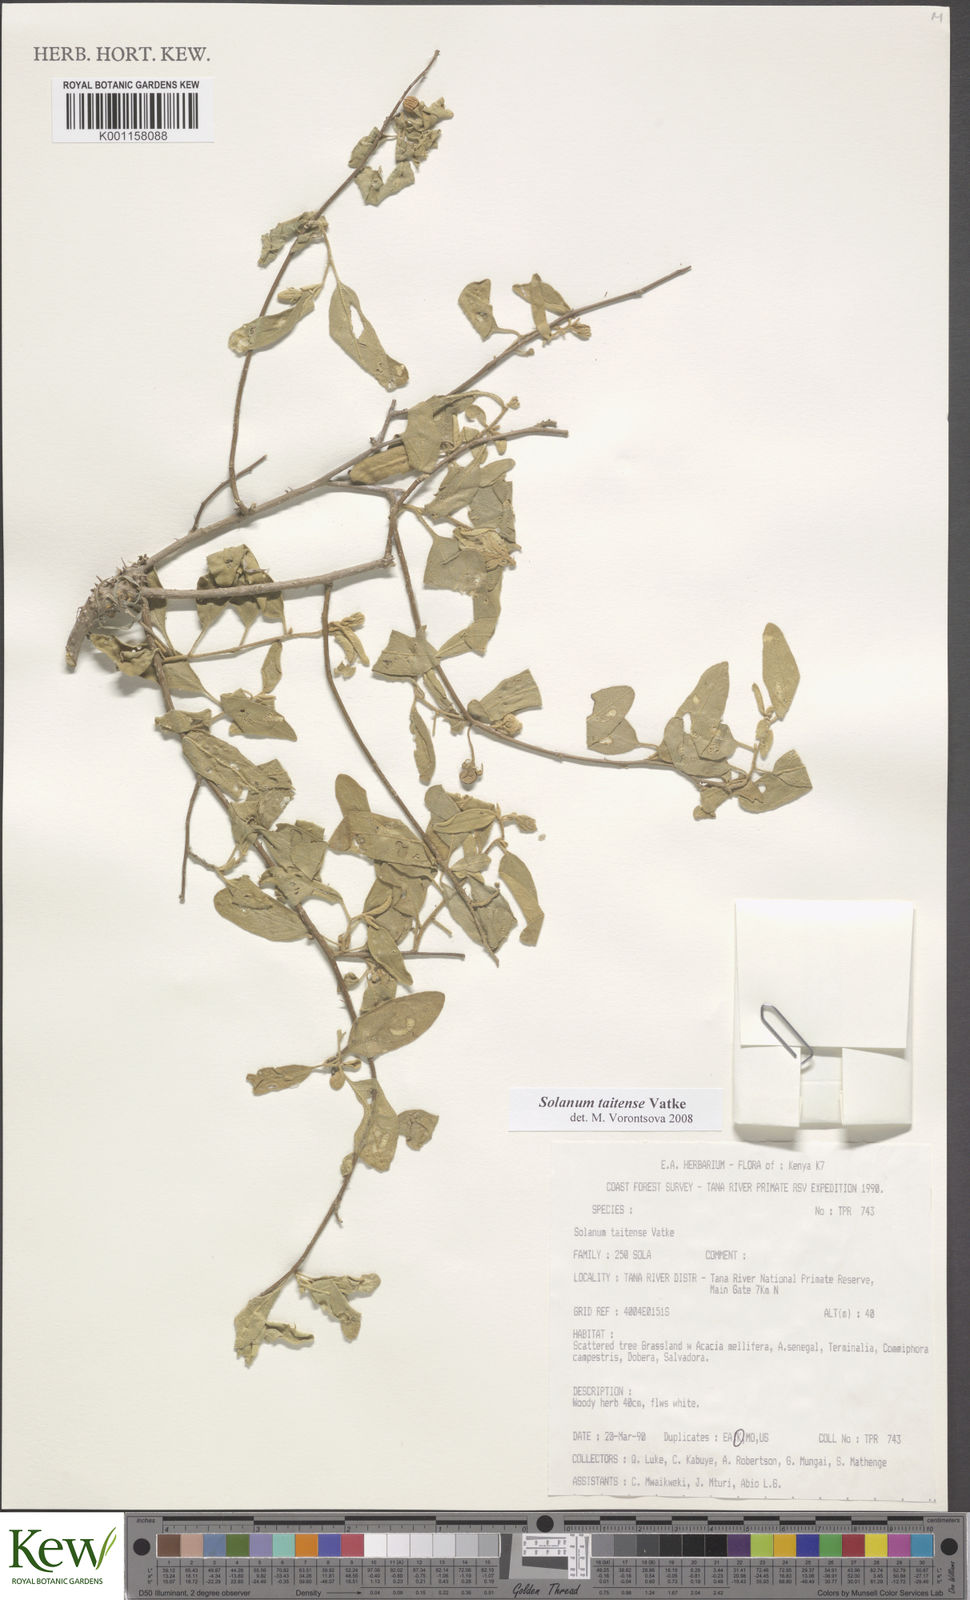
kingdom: Plantae
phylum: Tracheophyta
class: Magnoliopsida
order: Solanales
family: Solanaceae
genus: Solanum
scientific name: Solanum taitense
